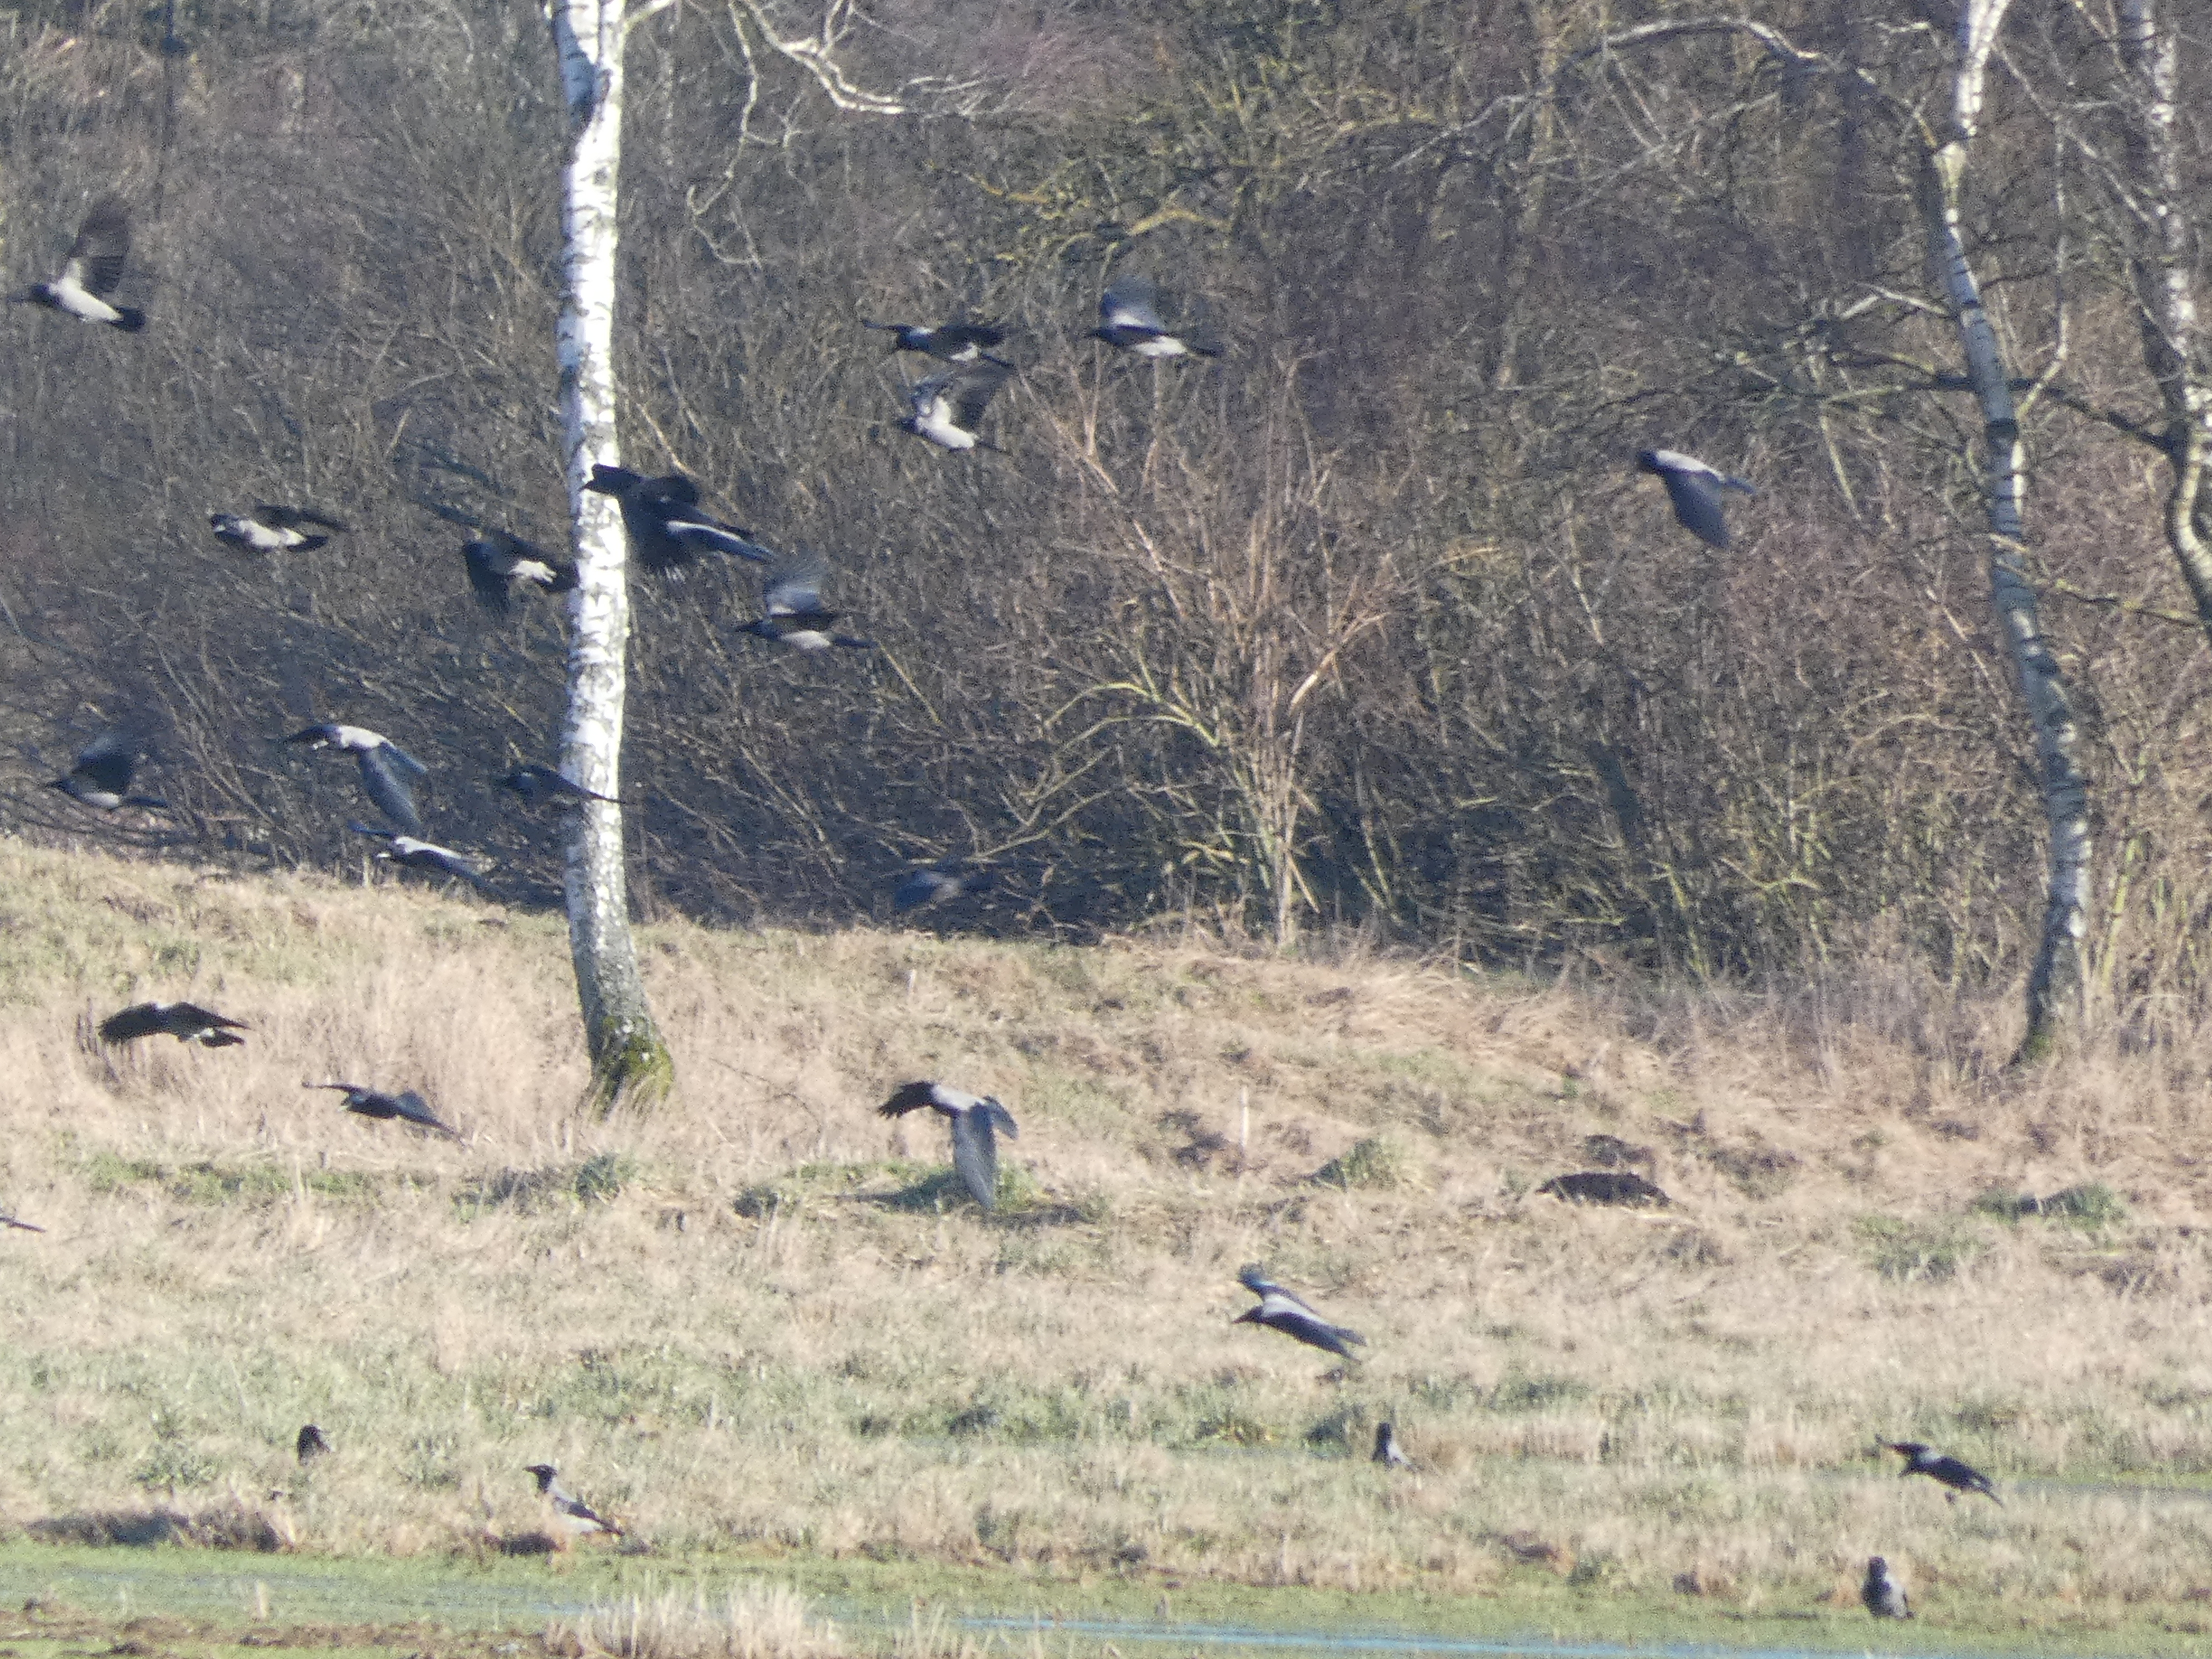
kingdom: Animalia
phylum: Chordata
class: Aves
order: Passeriformes
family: Corvidae
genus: Corvus
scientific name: Corvus cornix
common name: Gråkrage
